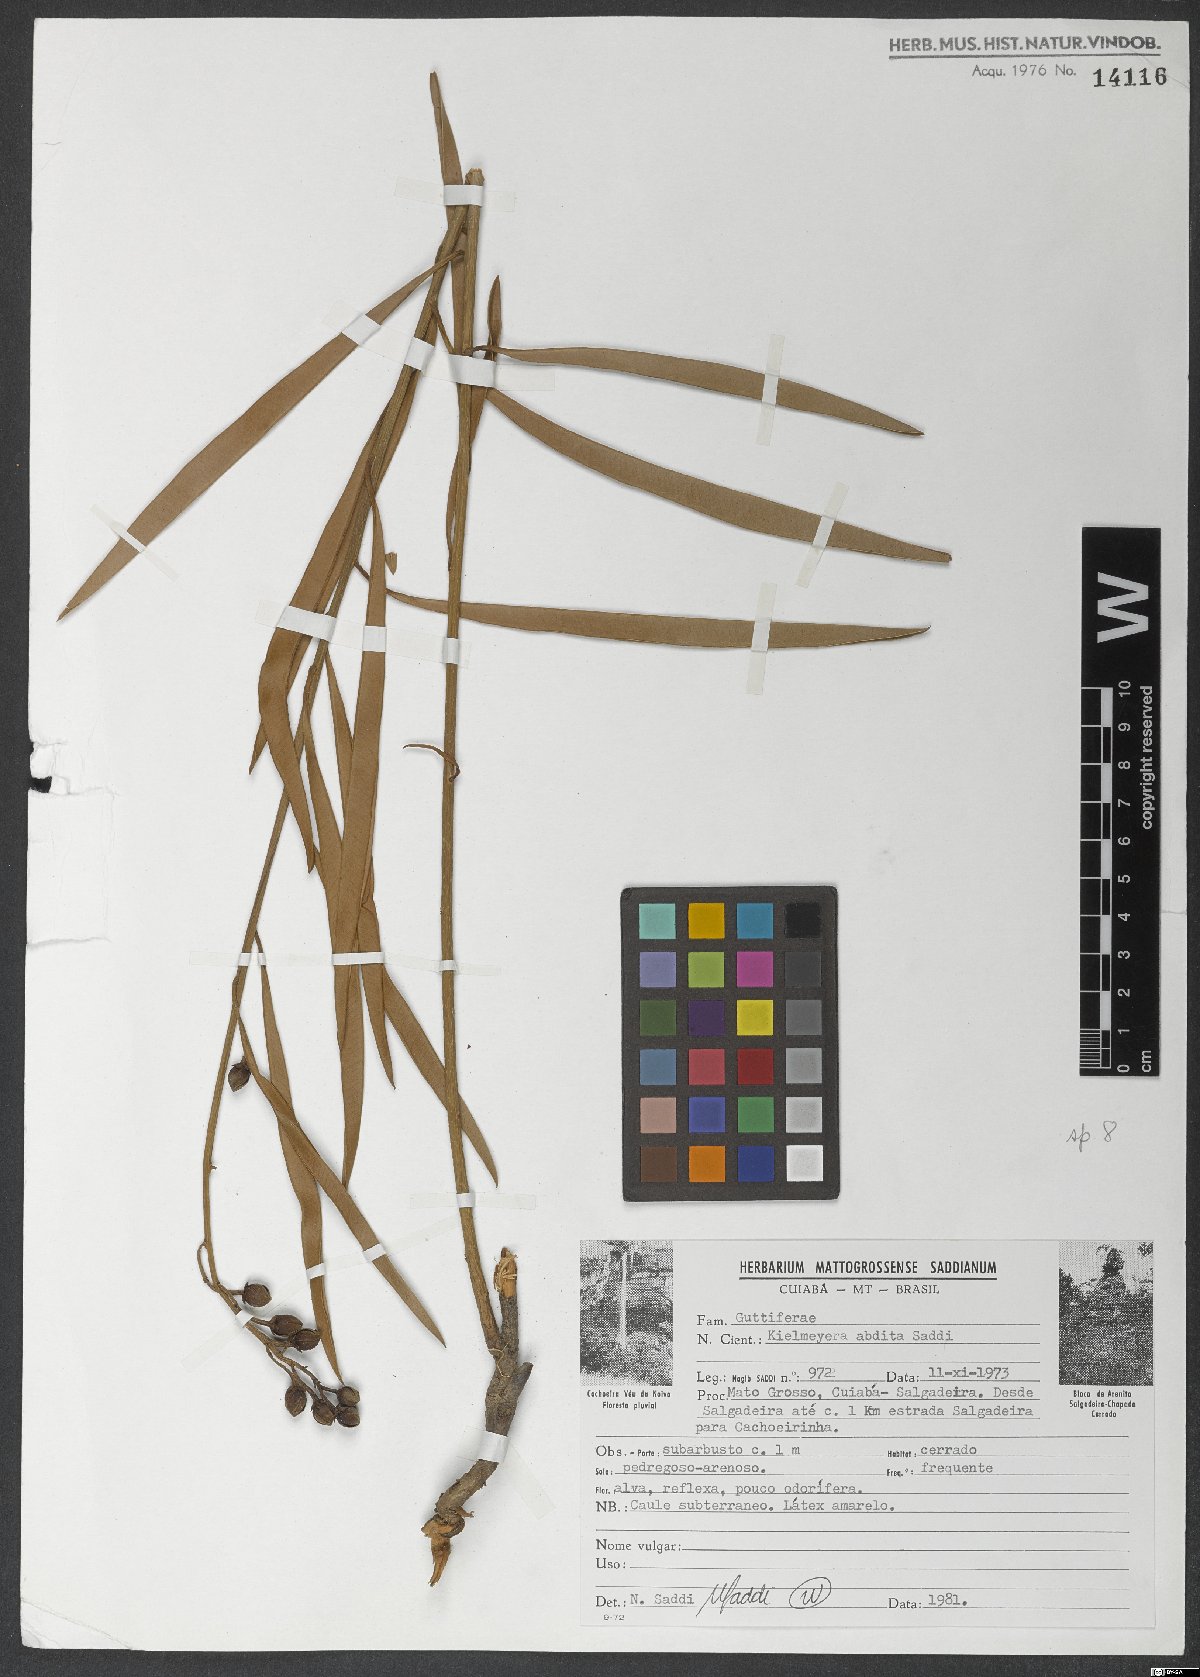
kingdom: Plantae
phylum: Tracheophyta
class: Magnoliopsida
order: Malpighiales
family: Calophyllaceae
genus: Kielmeyera
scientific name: Kielmeyera abdita
